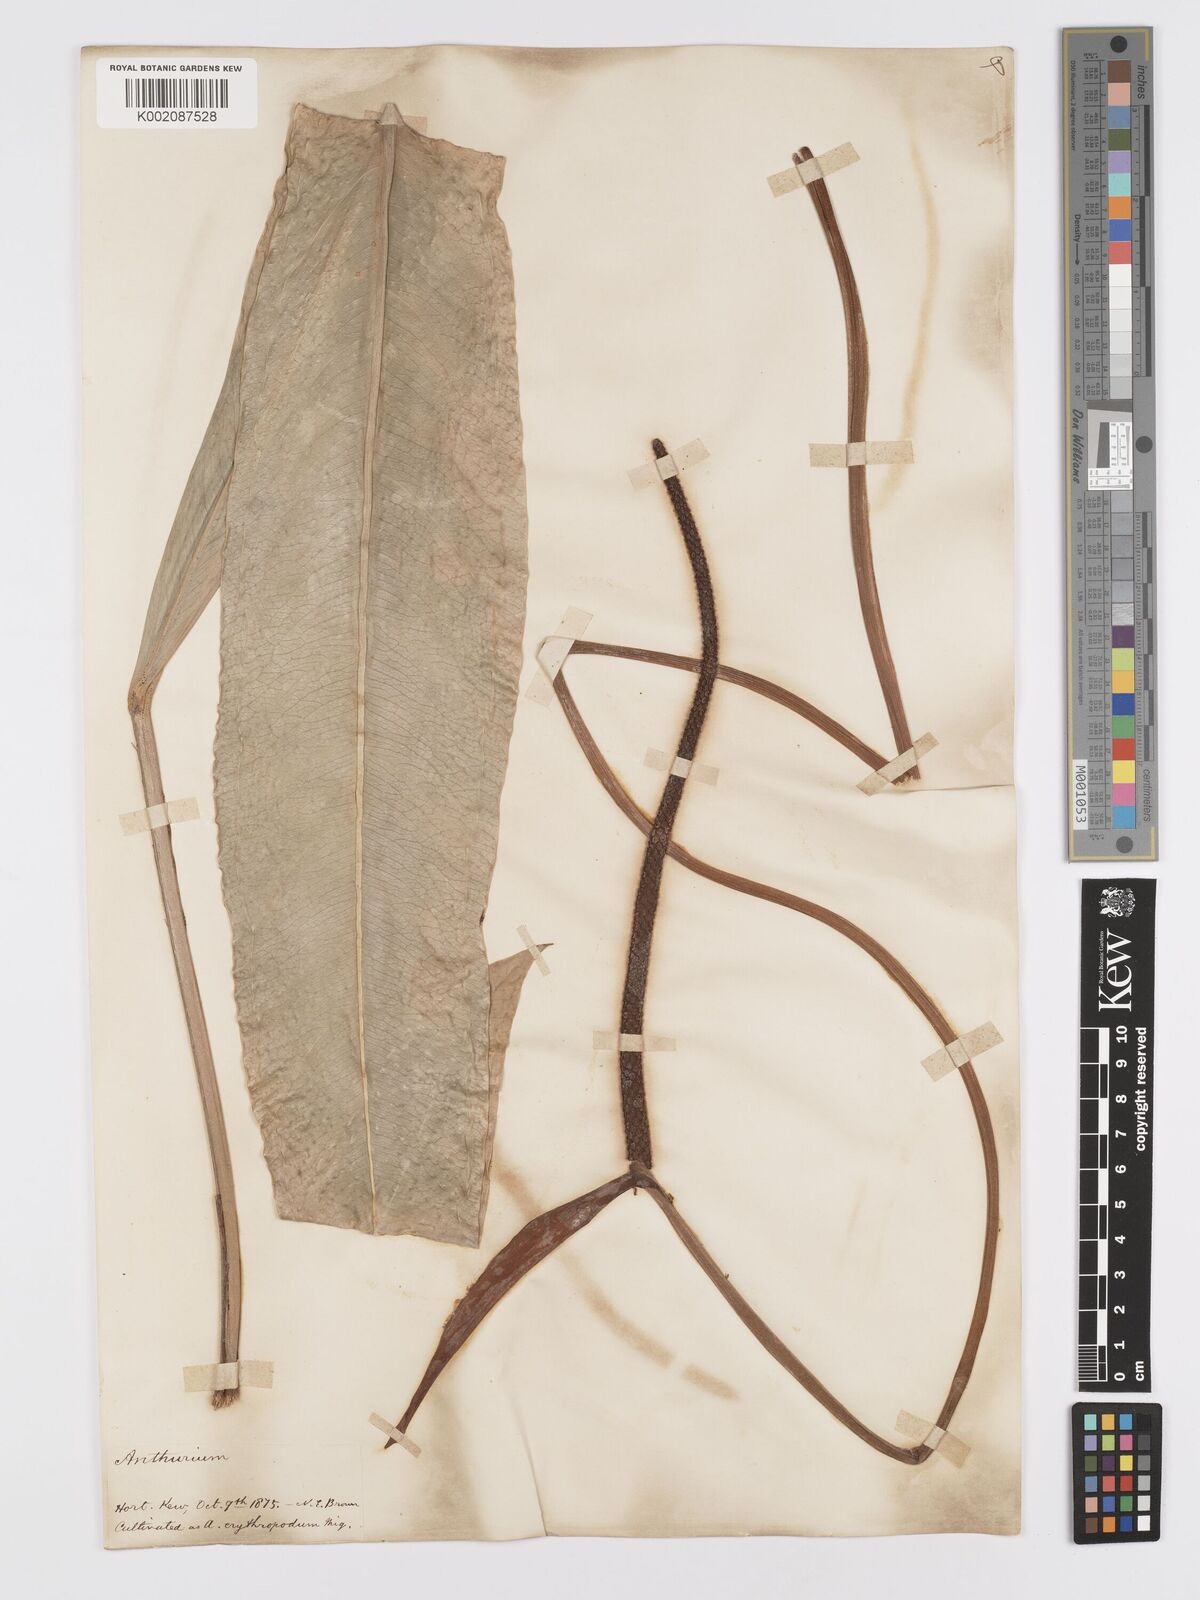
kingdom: Plantae
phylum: Tracheophyta
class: Liliopsida
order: Alismatales
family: Araceae
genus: Anthurium
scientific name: Anthurium intermedium
